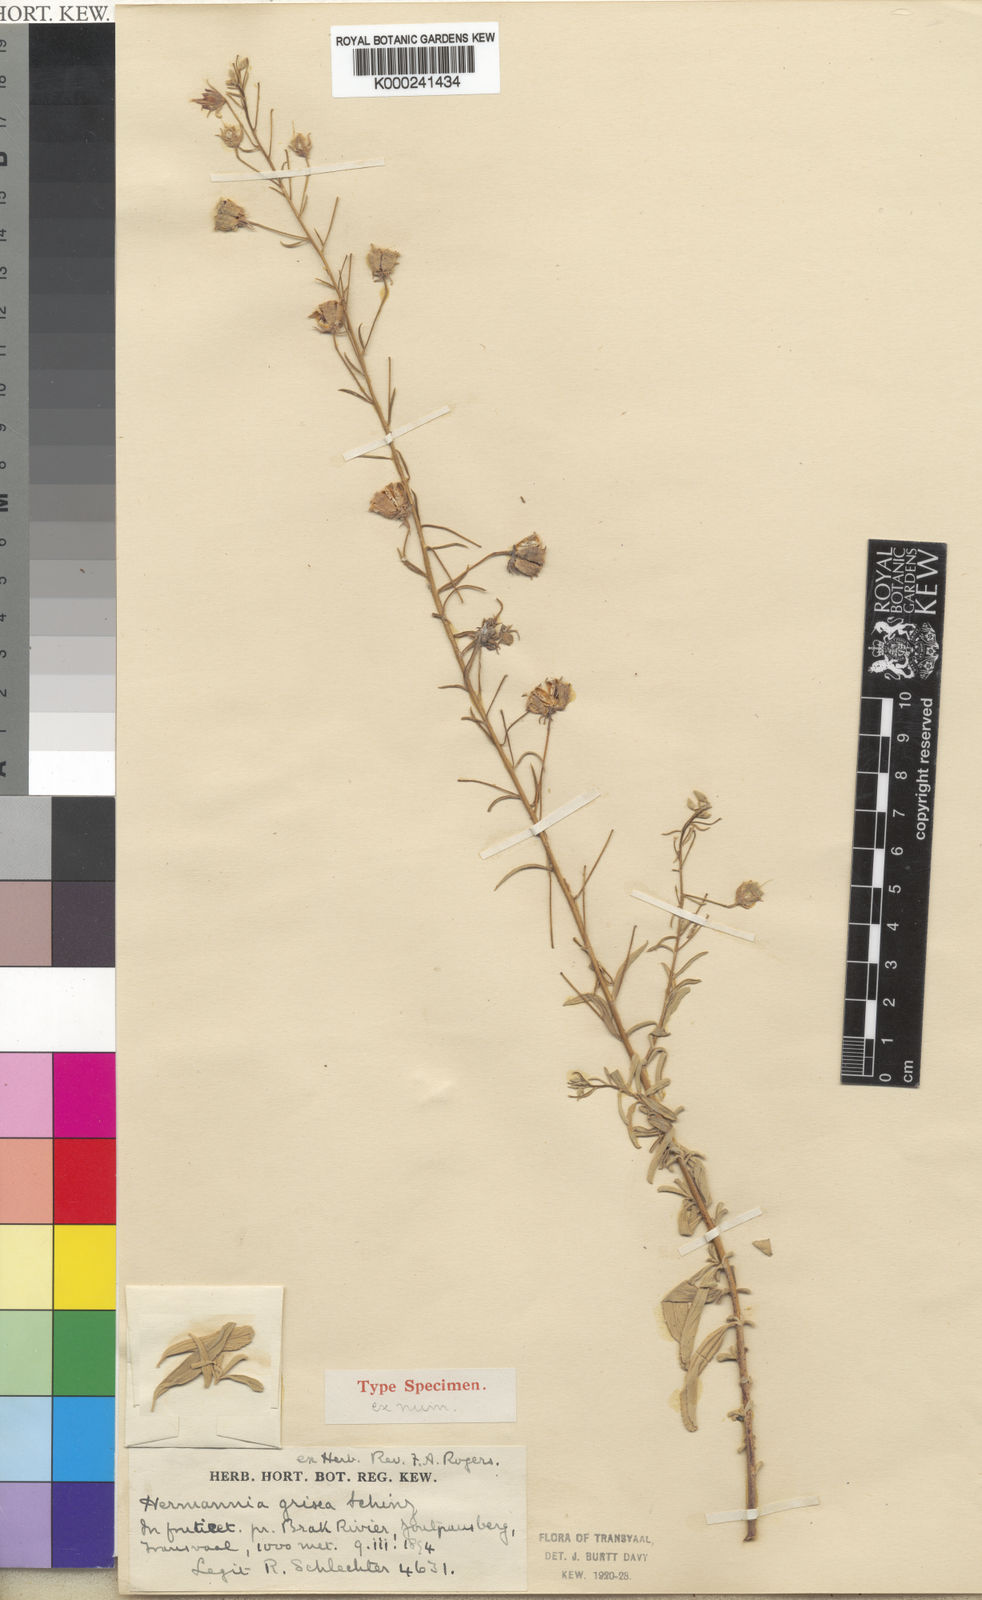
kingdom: Plantae
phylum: Tracheophyta
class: Magnoliopsida
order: Malvales
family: Malvaceae
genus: Hermannia
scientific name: Hermannia grisea
